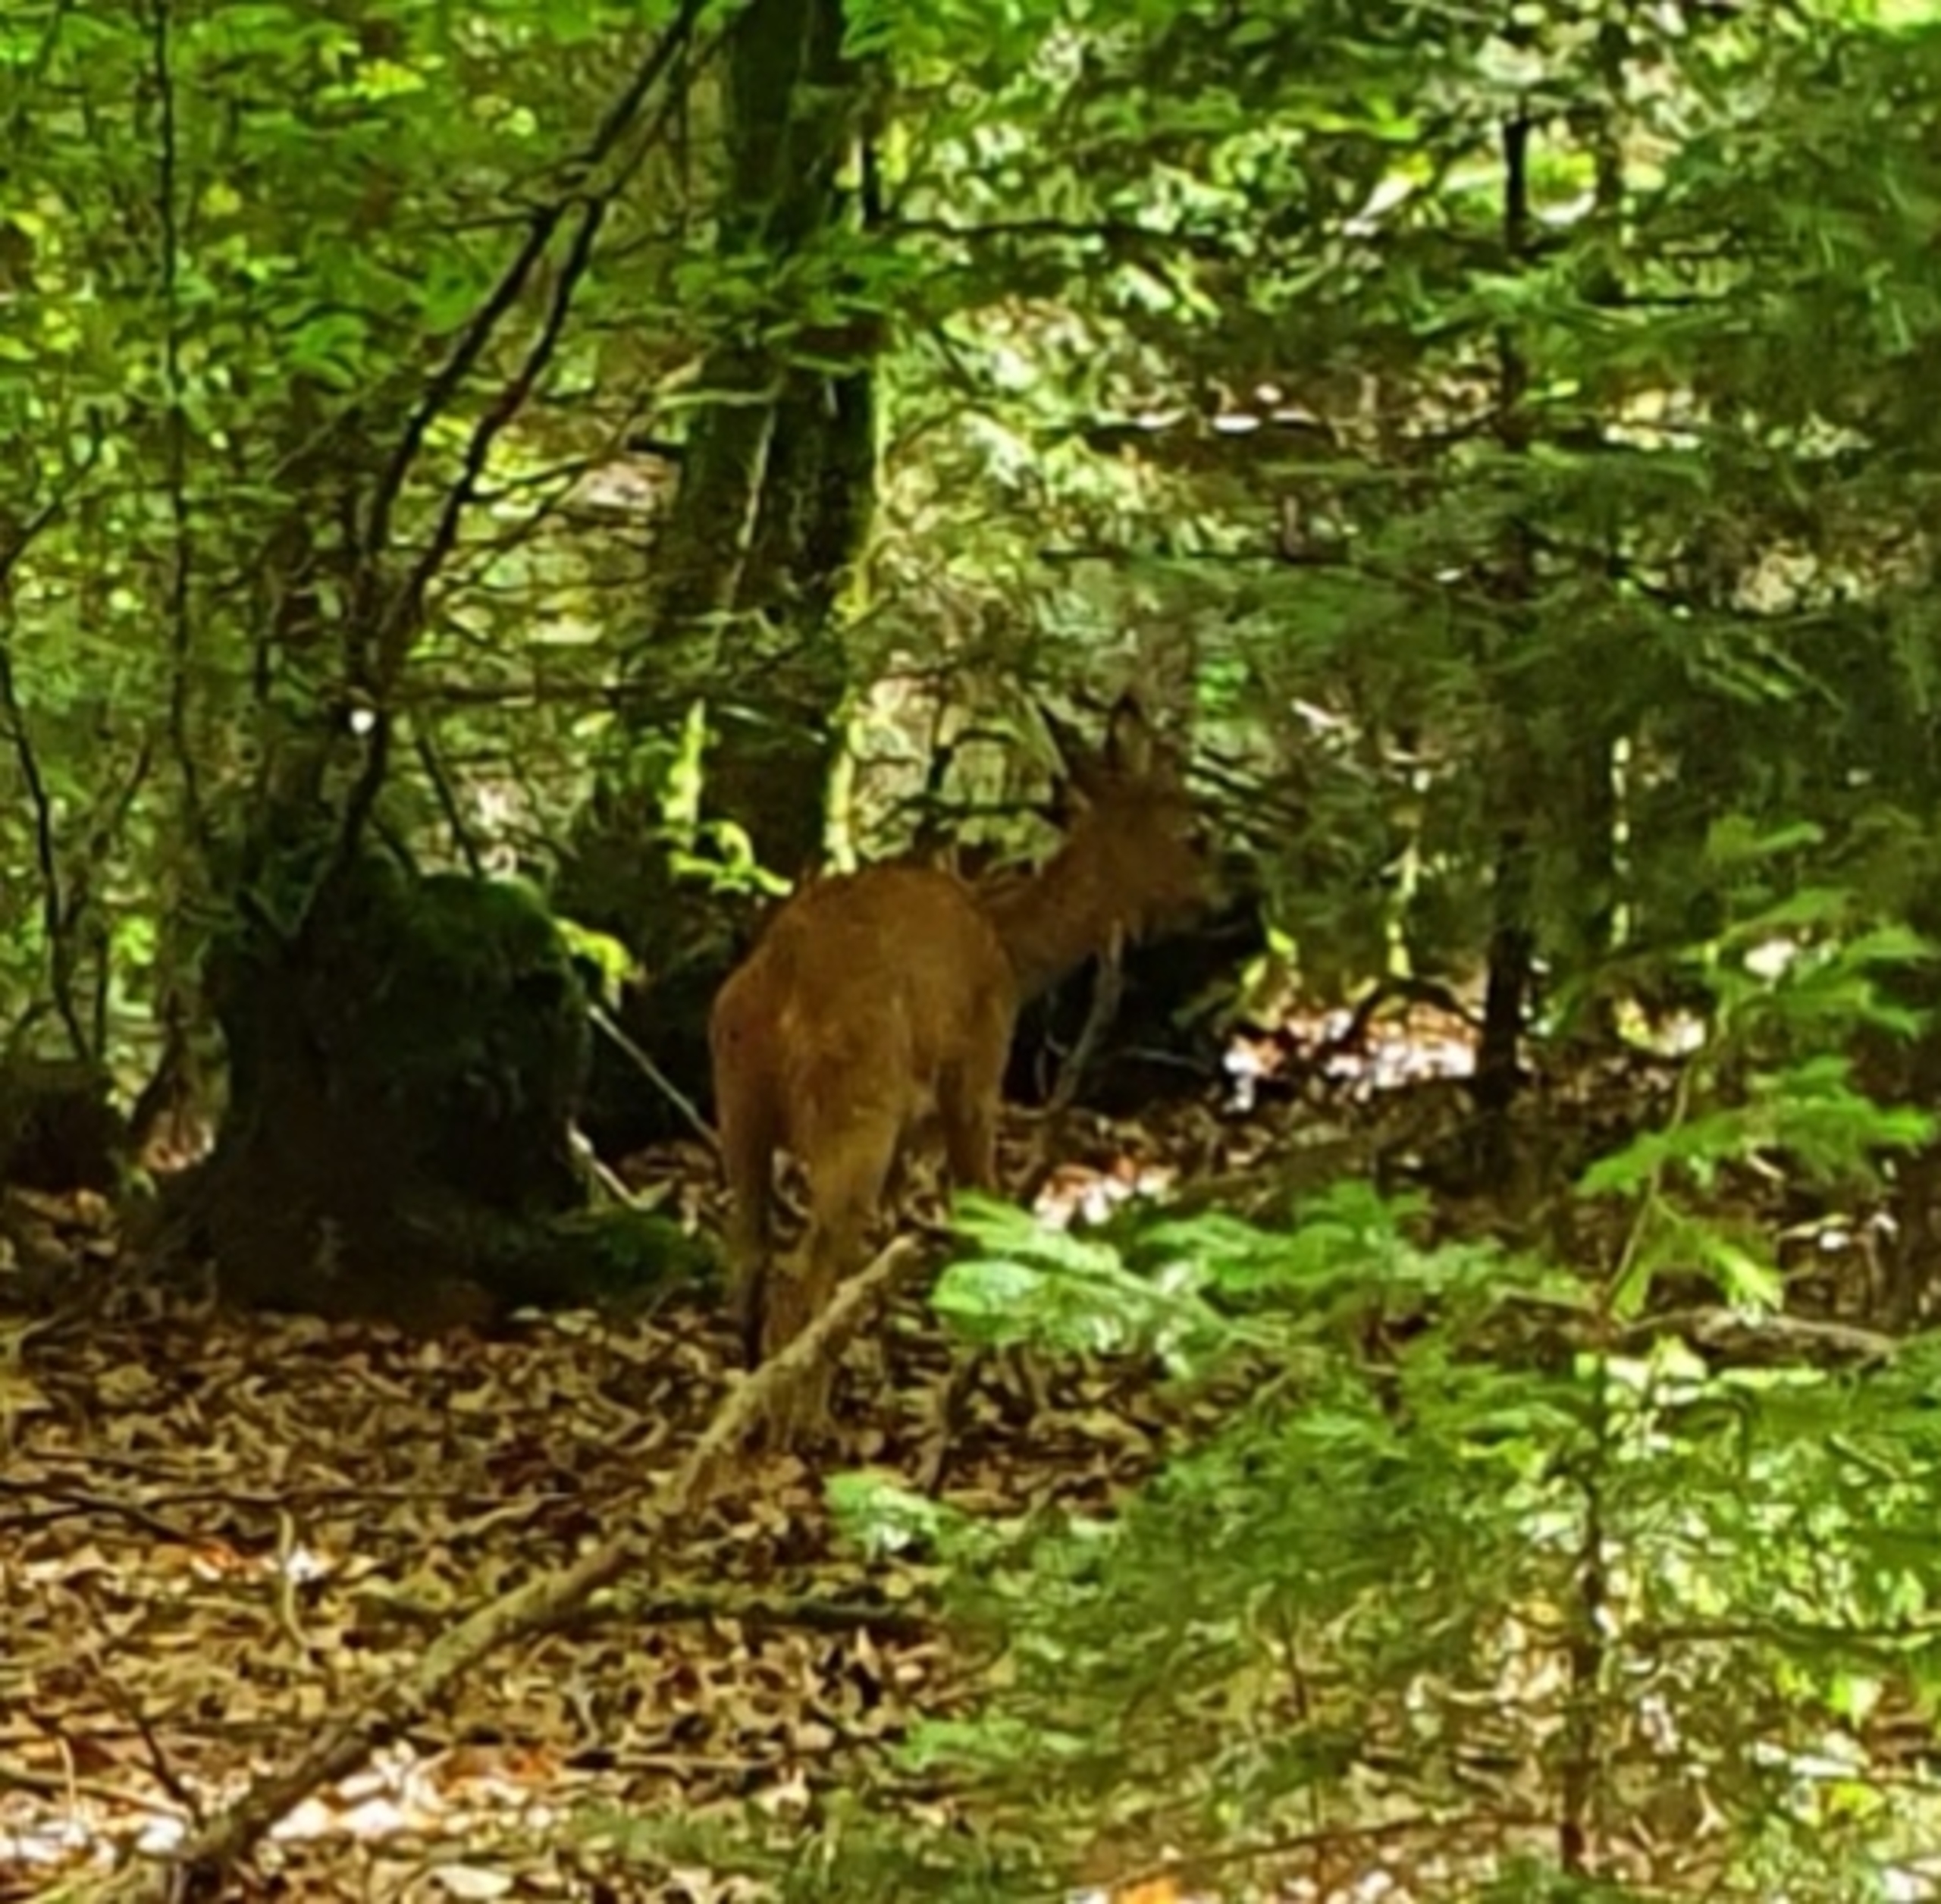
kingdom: Animalia
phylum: Chordata
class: Mammalia
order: Artiodactyla
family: Cervidae
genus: Capreolus
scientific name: Capreolus capreolus
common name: Rådyr
